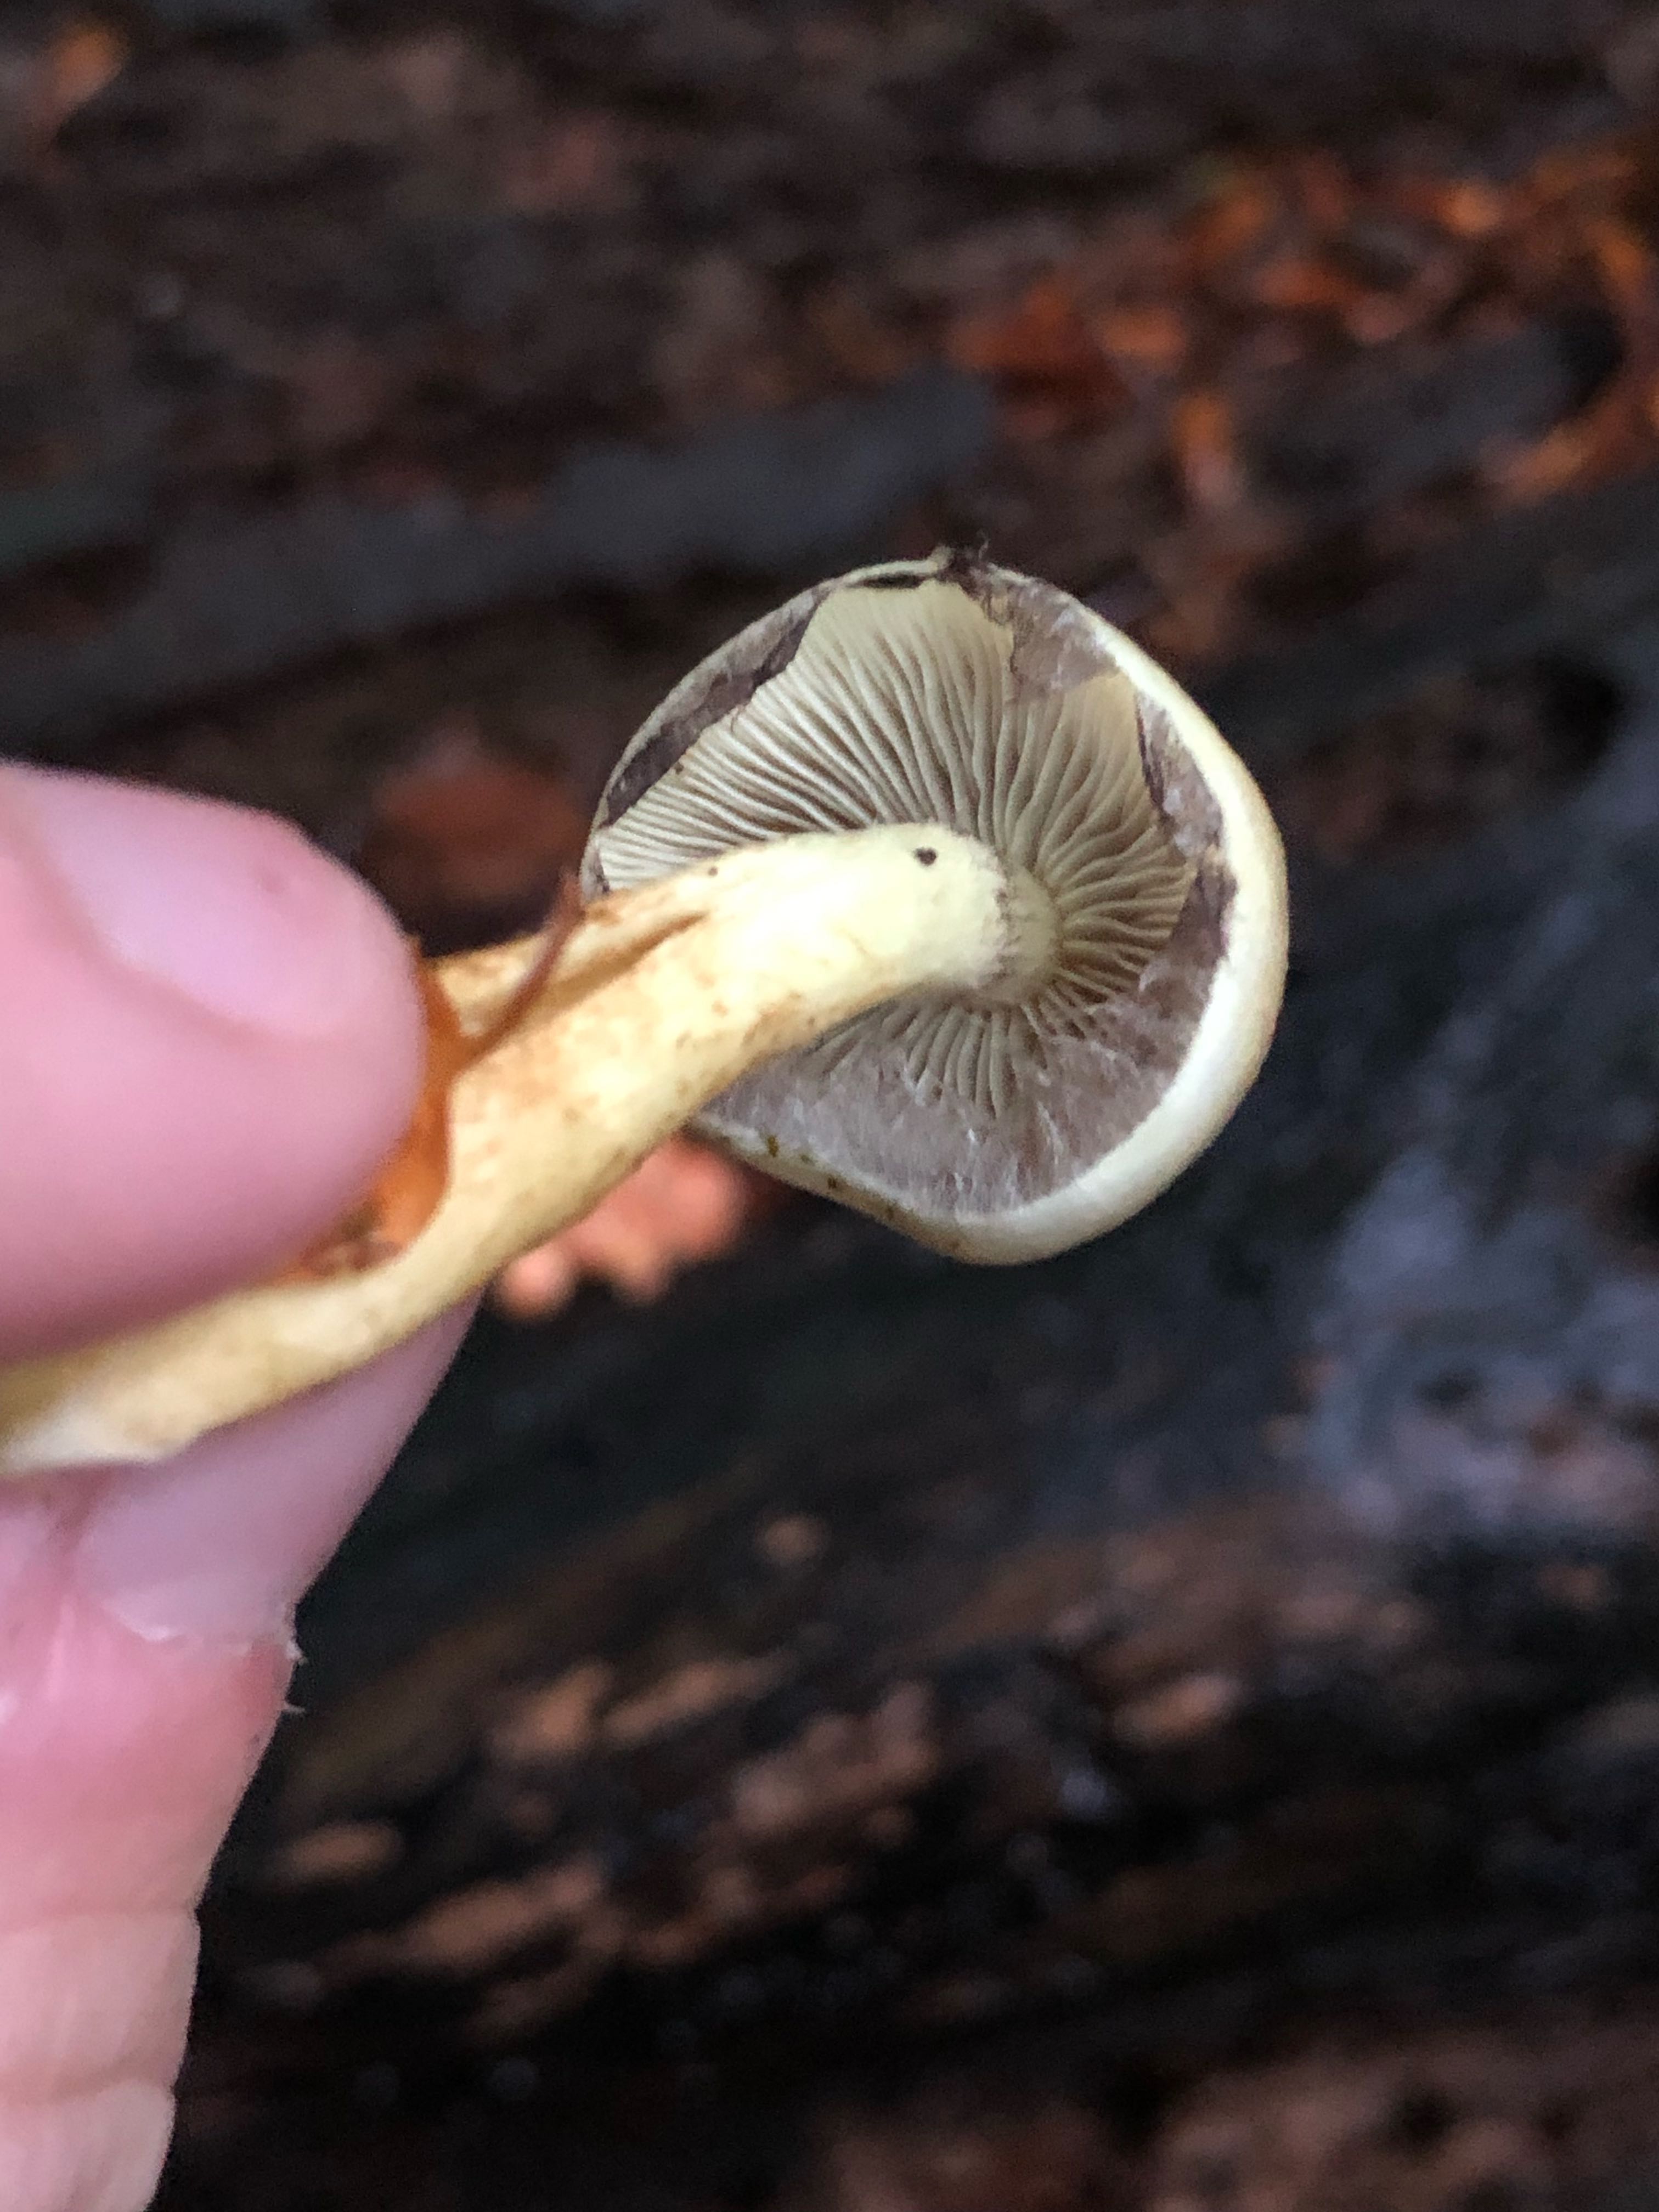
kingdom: Fungi
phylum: Basidiomycota
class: Agaricomycetes
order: Agaricales
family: Strophariaceae
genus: Hypholoma
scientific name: Hypholoma fasciculare
